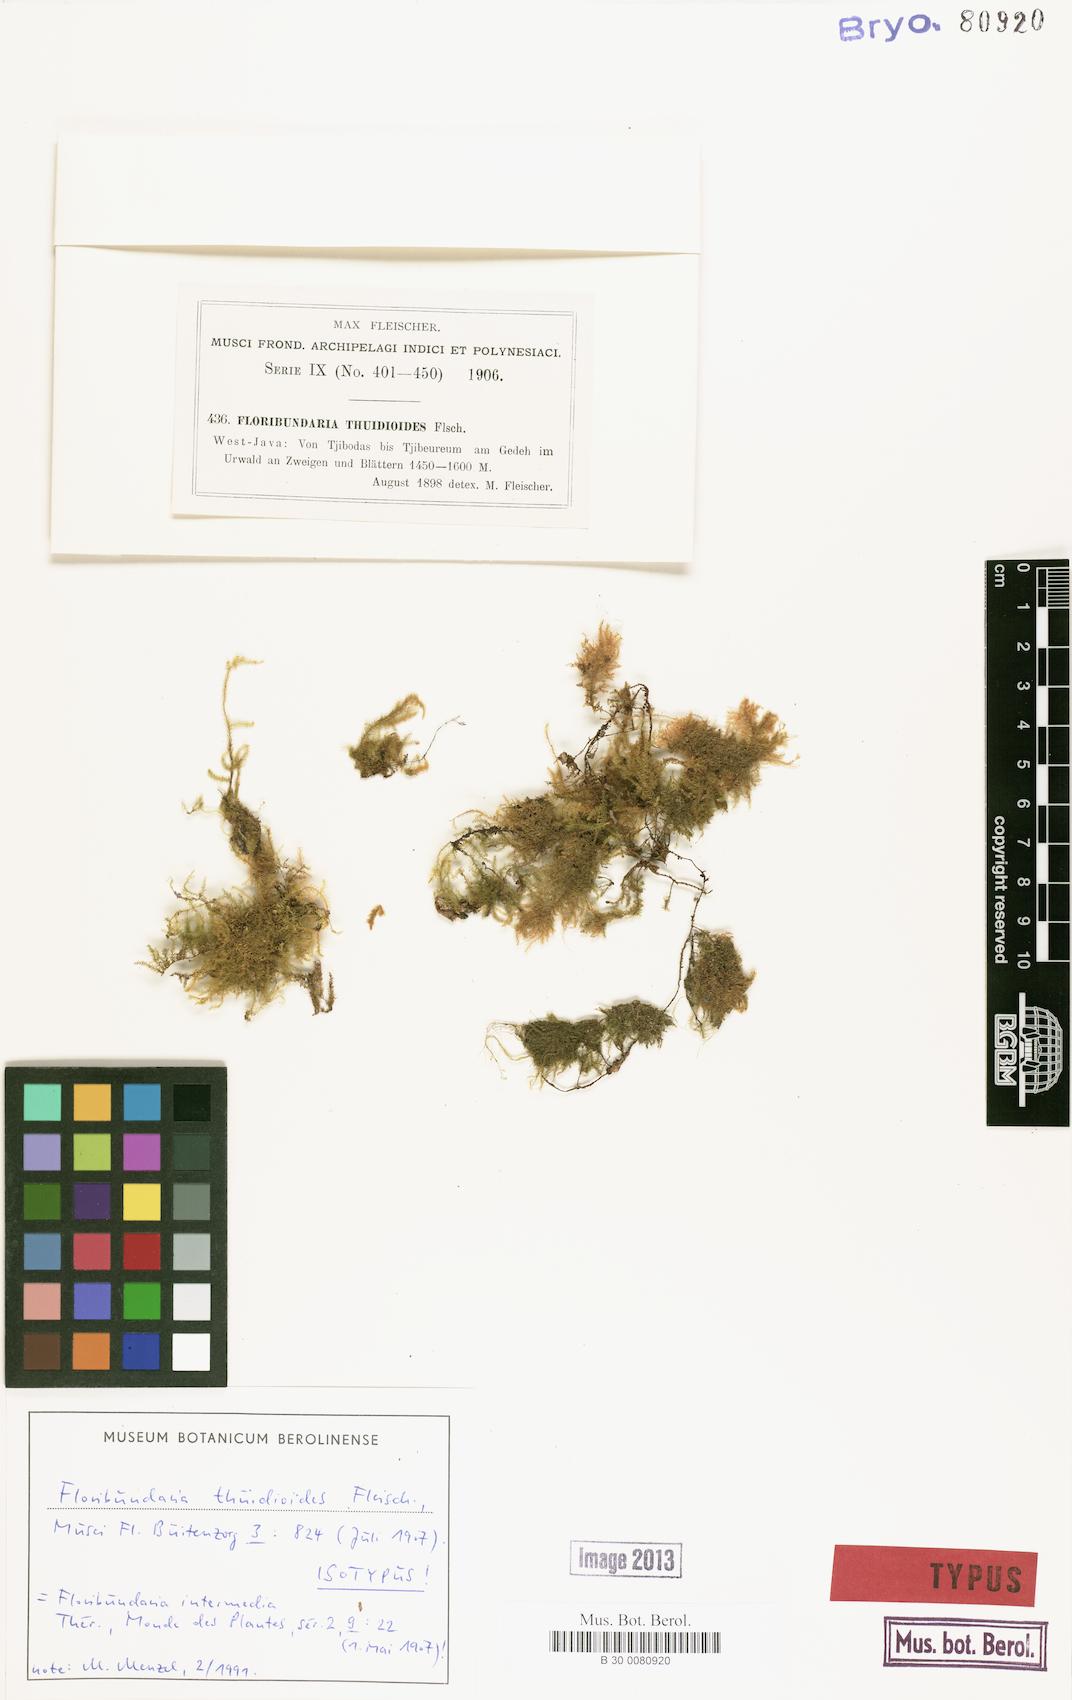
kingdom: Plantae
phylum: Bryophyta
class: Bryopsida
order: Hypnales
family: Meteoriaceae
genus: Floribundaria
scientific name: Floribundaria intermedia
